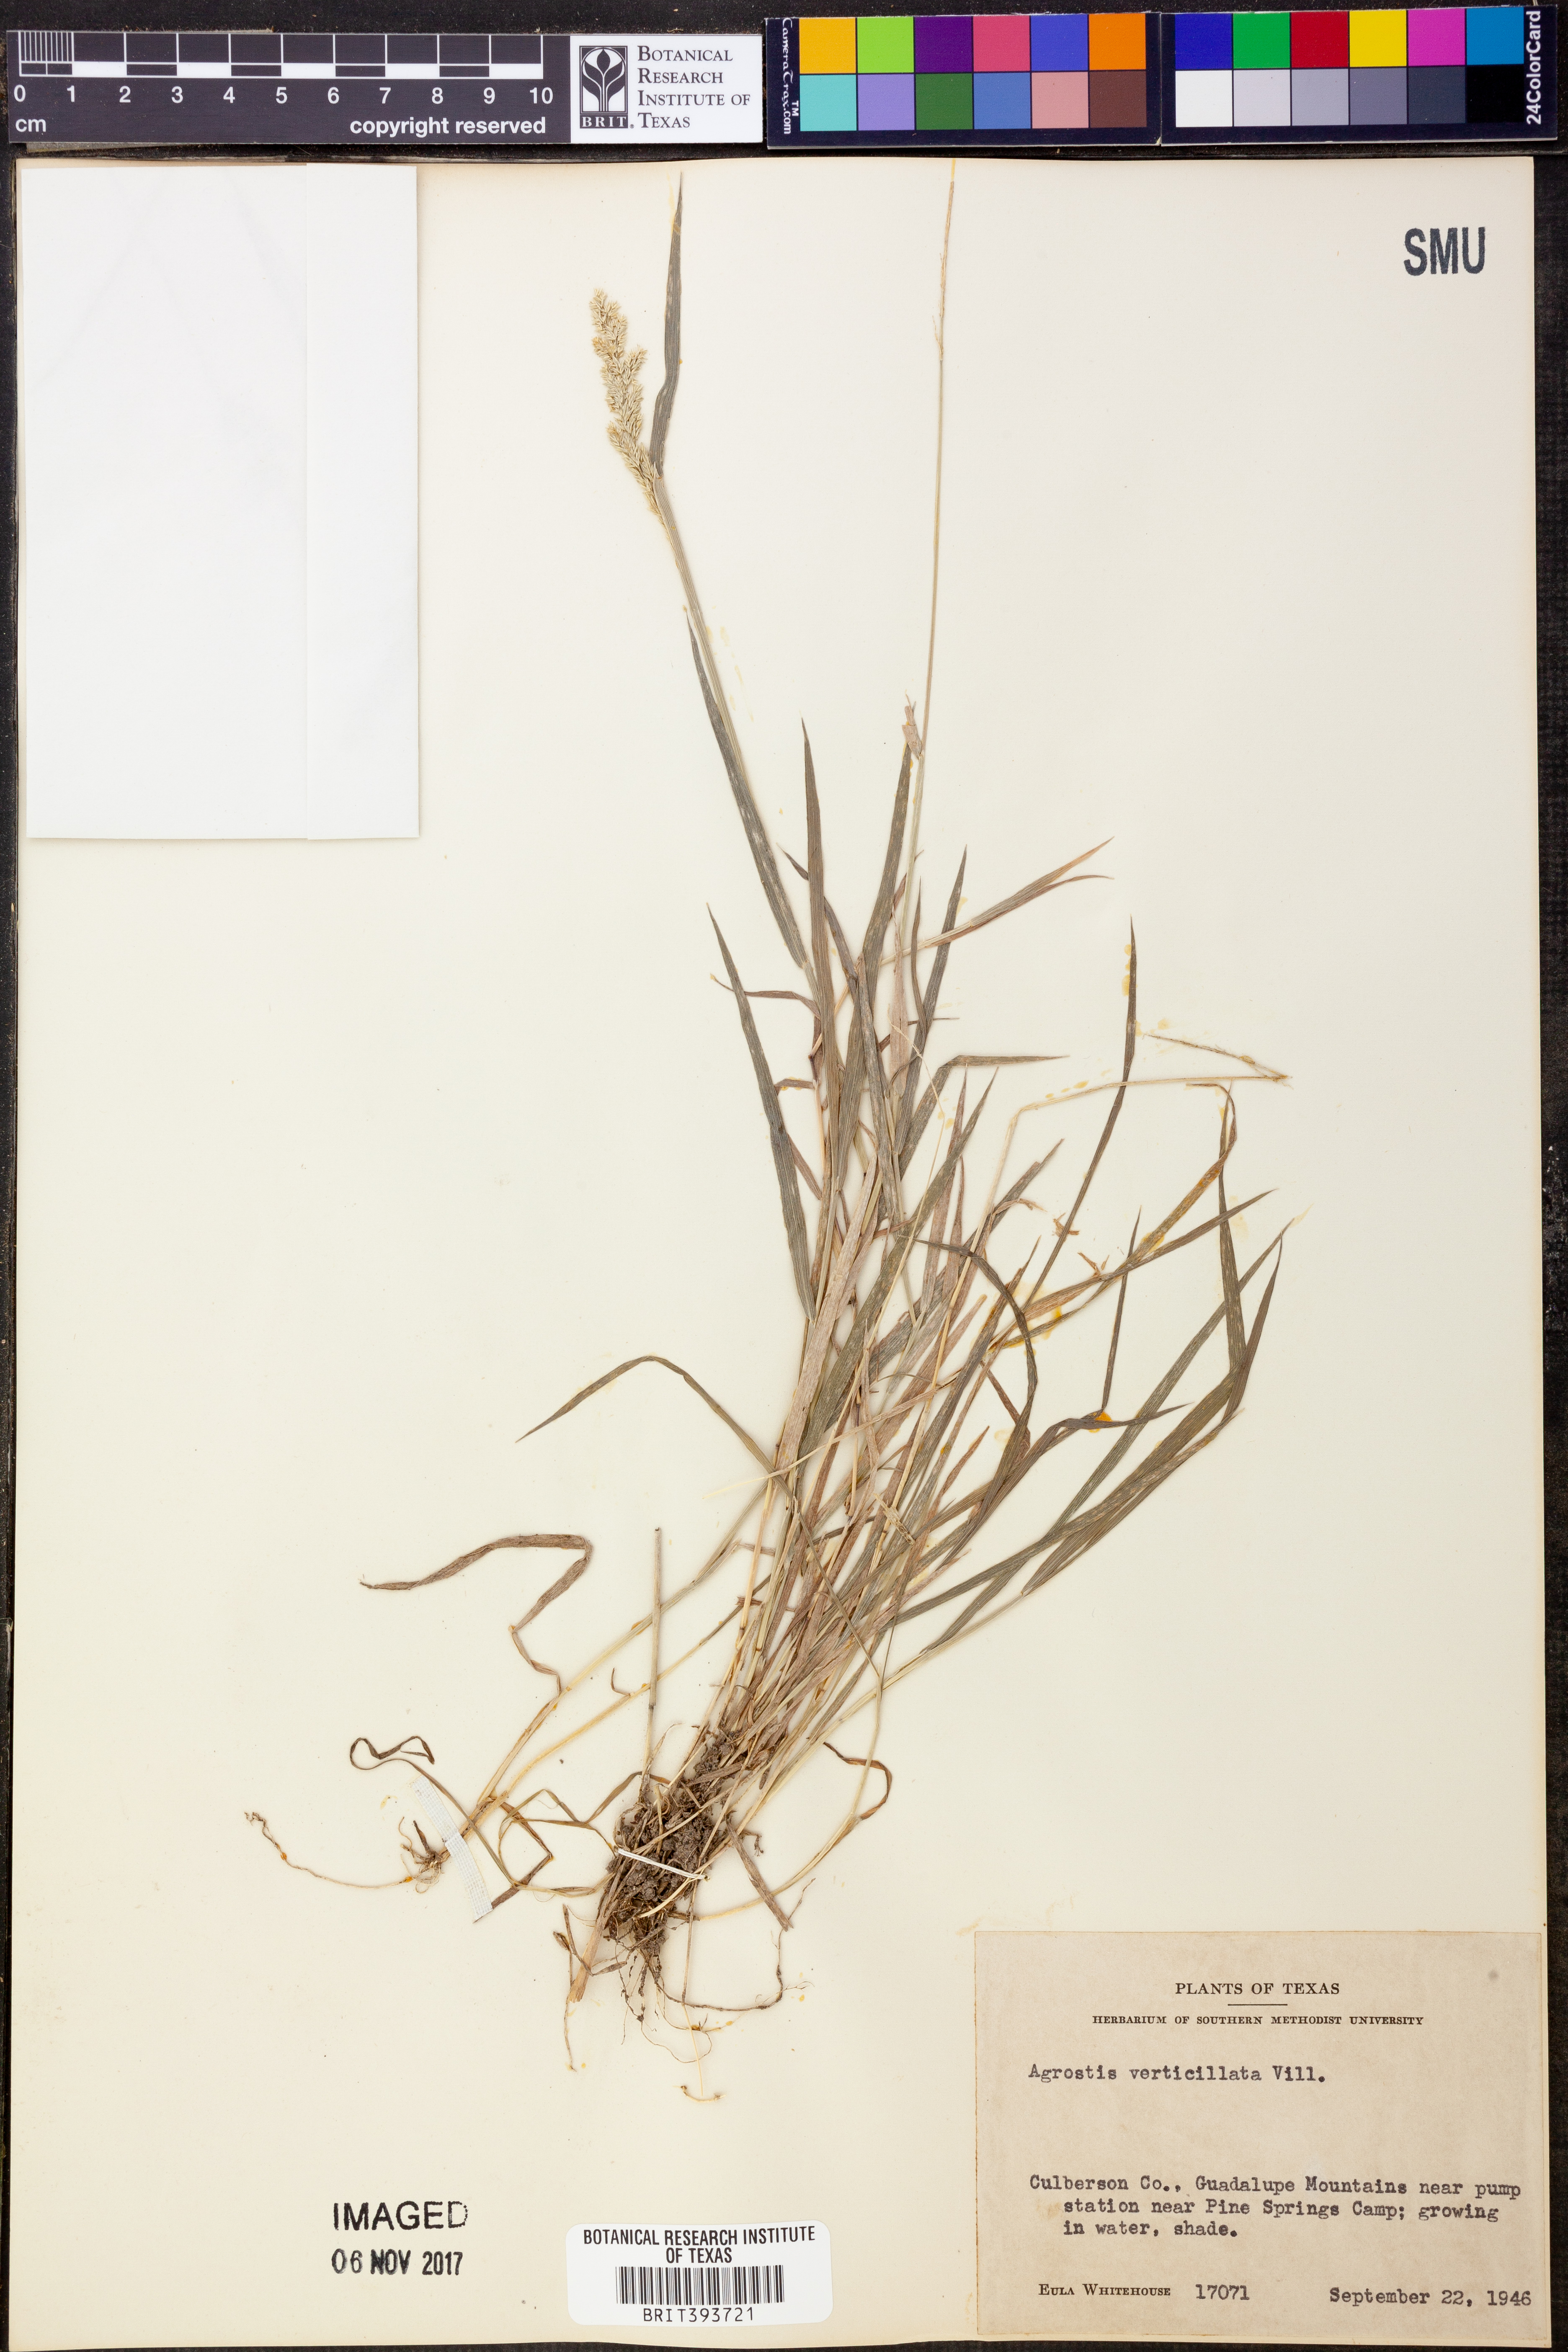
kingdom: Plantae
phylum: Tracheophyta
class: Liliopsida
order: Poales
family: Poaceae
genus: Polypogon
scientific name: Polypogon viridis
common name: Water bent
